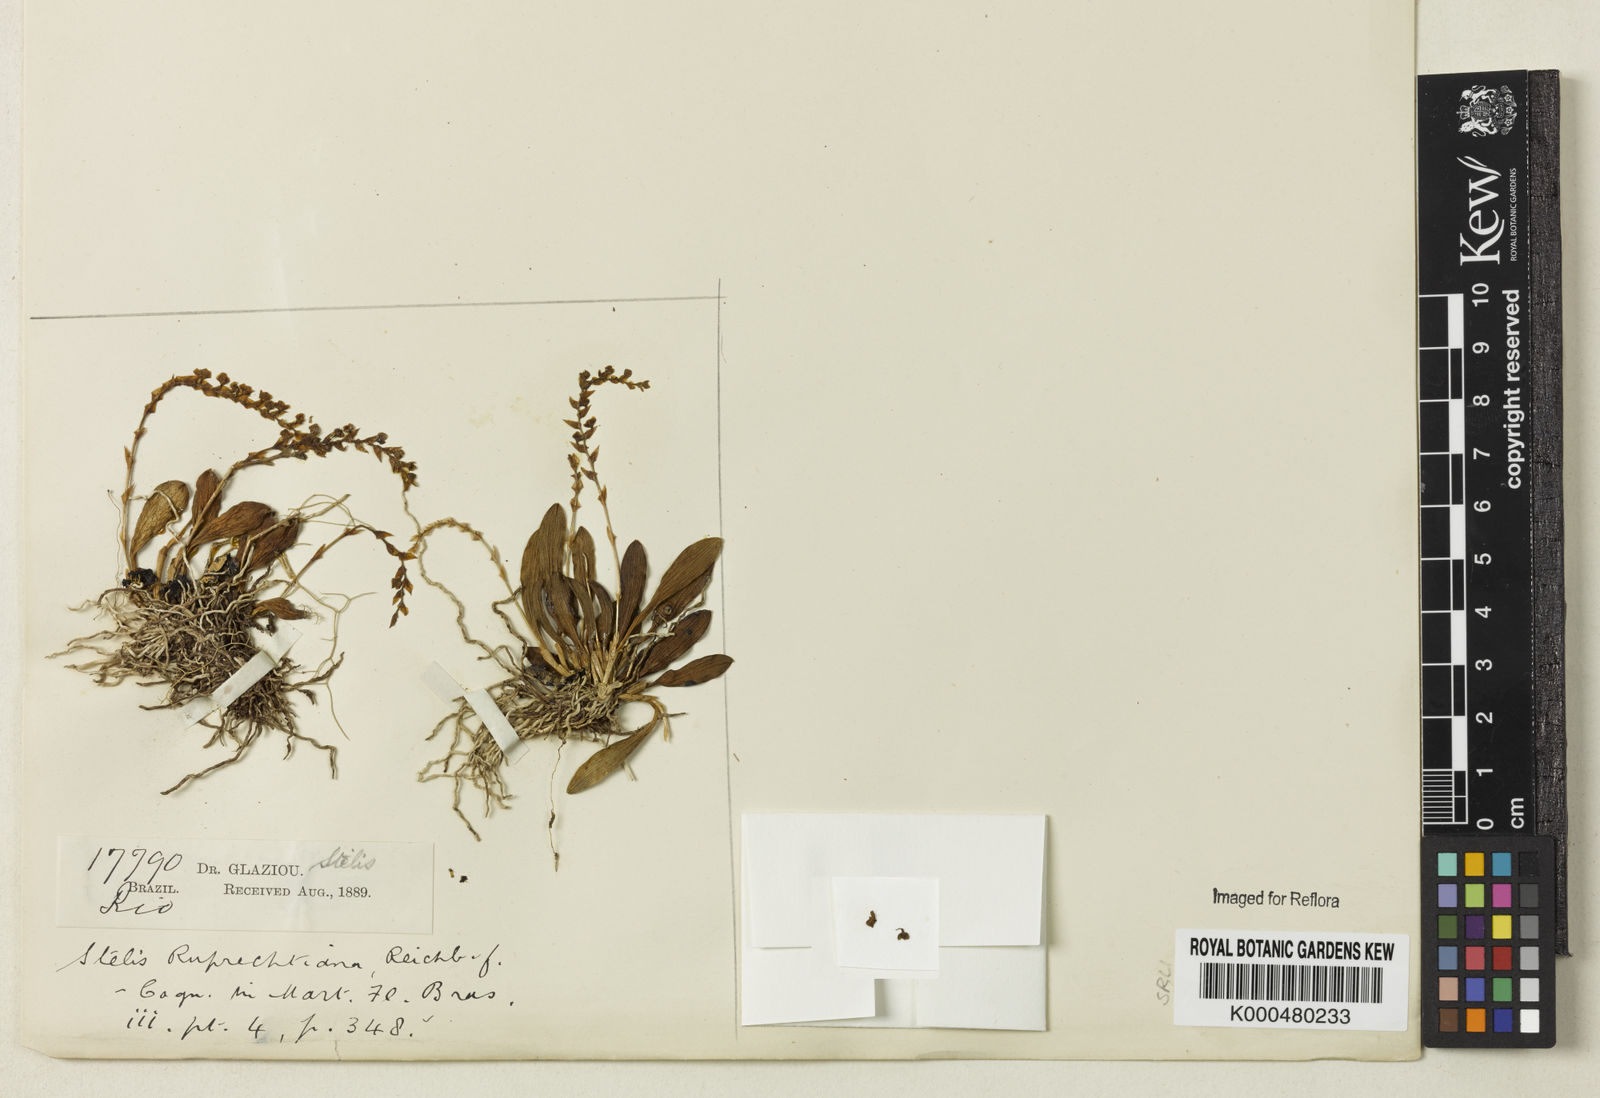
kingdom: Plantae
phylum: Tracheophyta
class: Liliopsida
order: Asparagales
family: Orchidaceae
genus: Stelis
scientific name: Stelis ruprechtiana
